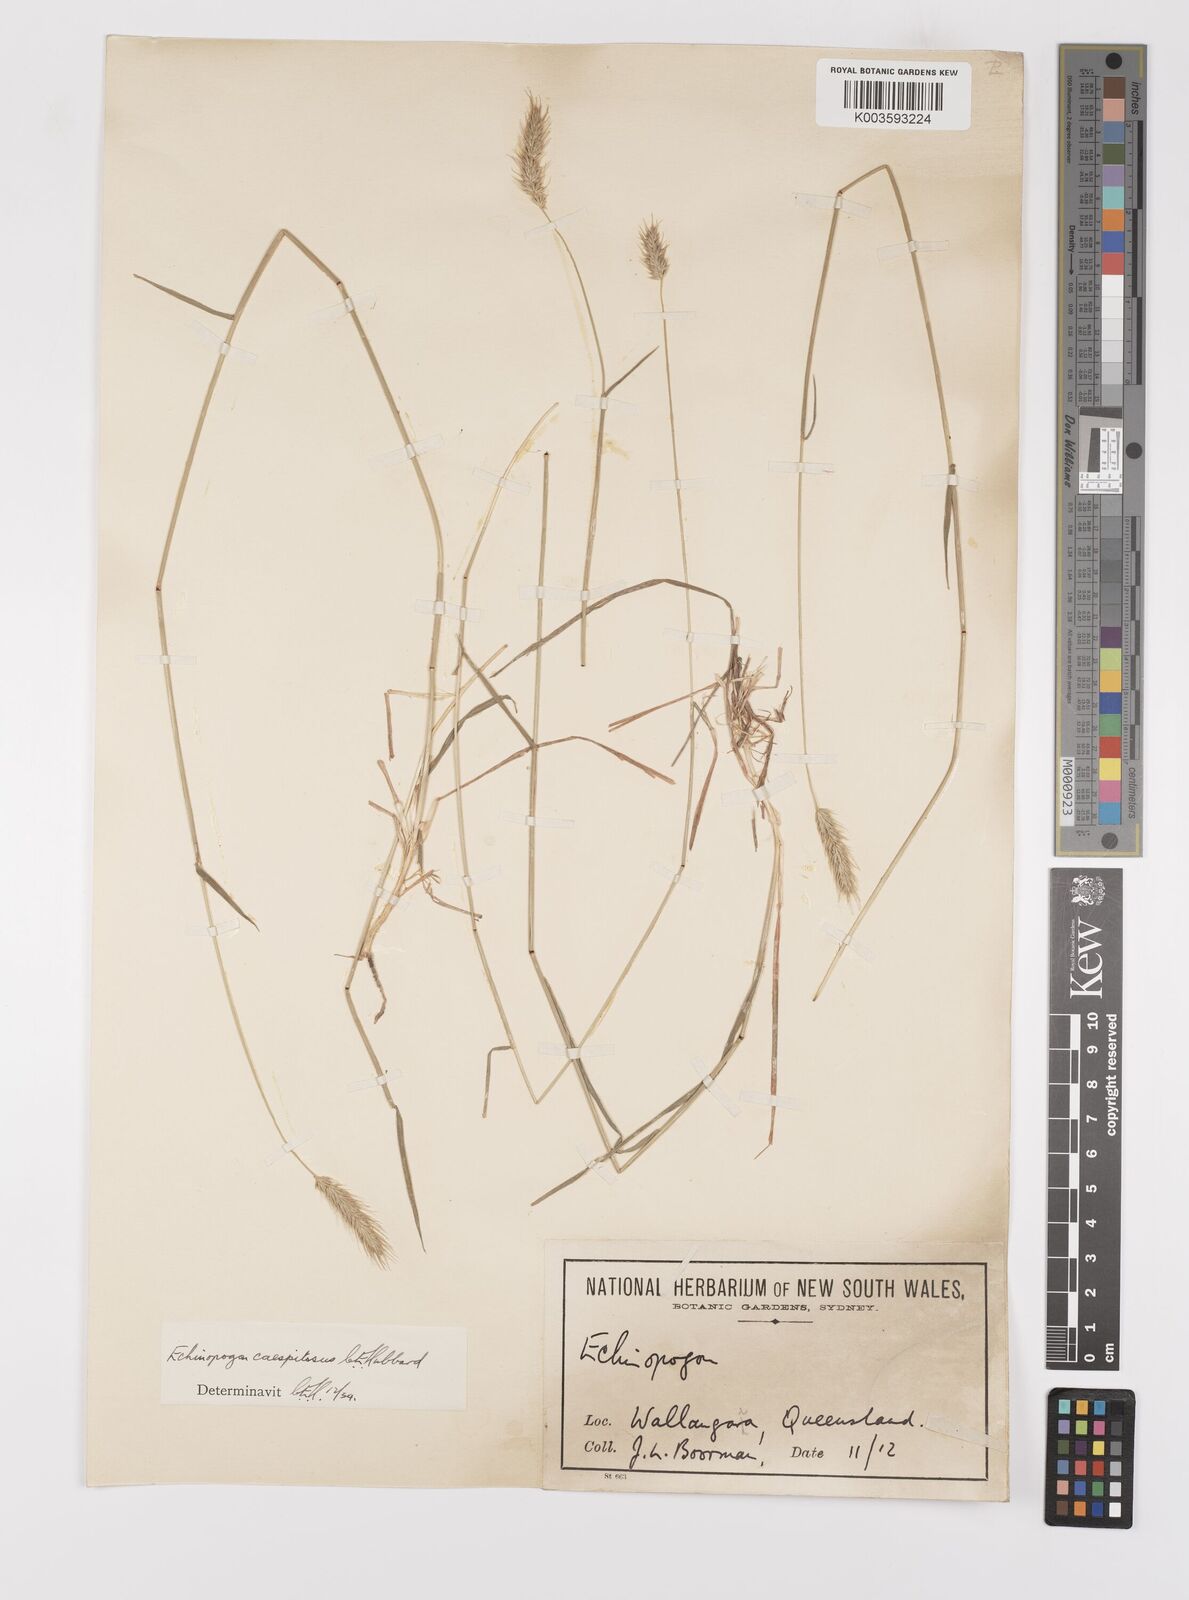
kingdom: Plantae
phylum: Tracheophyta
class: Liliopsida
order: Poales
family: Poaceae
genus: Echinopogon
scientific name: Echinopogon caespitosus
